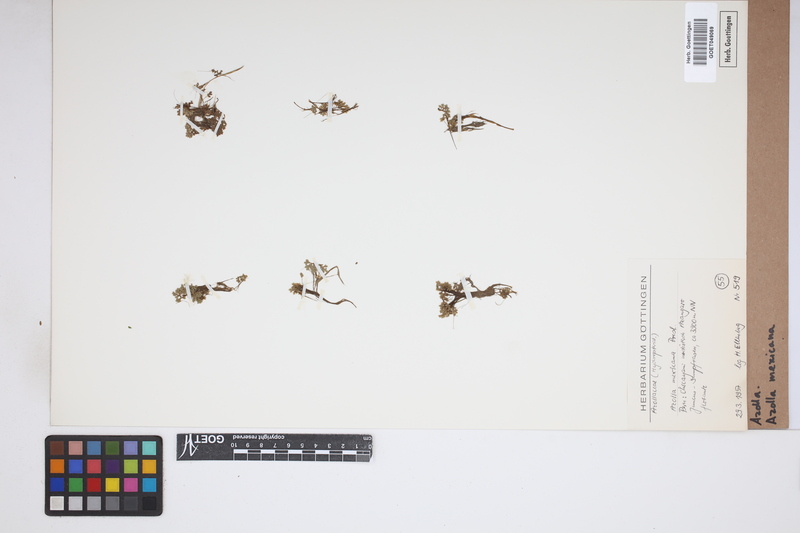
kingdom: Plantae
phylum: Tracheophyta
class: Polypodiopsida
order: Salviniales
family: Salviniaceae
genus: Azolla
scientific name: Azolla mexicana
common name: Mexican azolla
